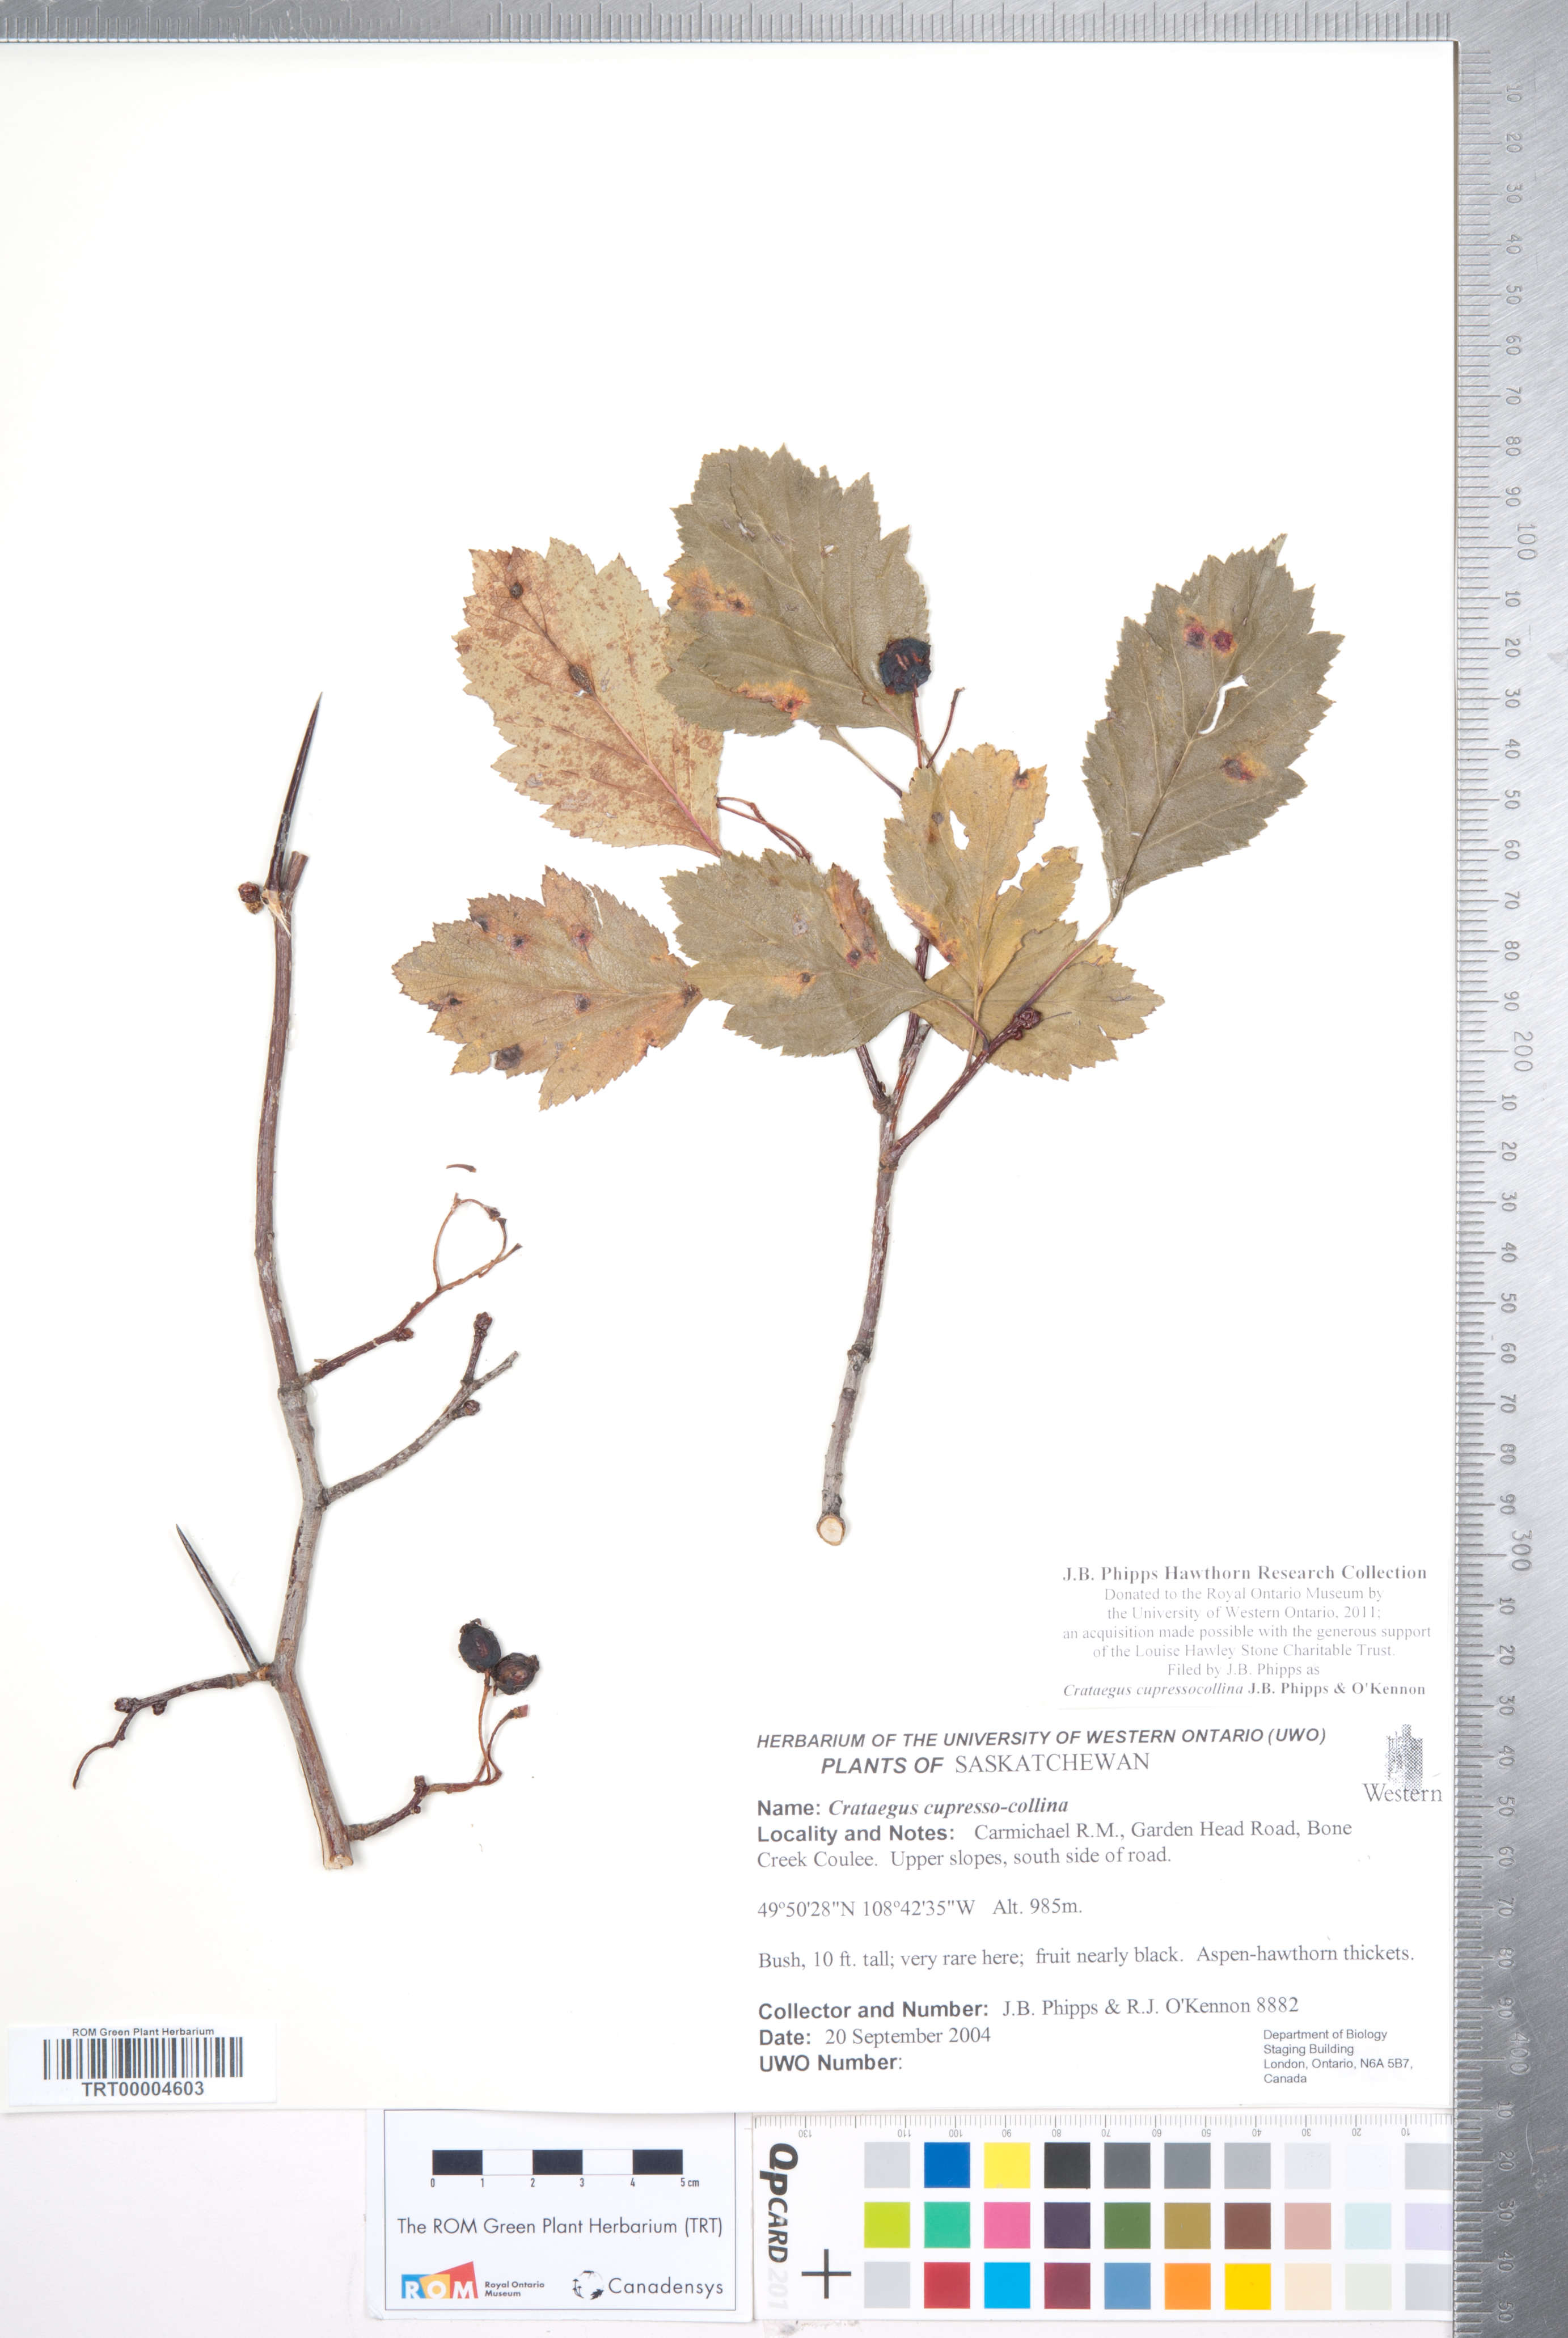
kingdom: Plantae
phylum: Tracheophyta
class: Magnoliopsida
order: Rosales
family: Rosaceae
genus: Crataegus
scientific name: Crataegus cupressocollina
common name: Cypress hills hawthorn
